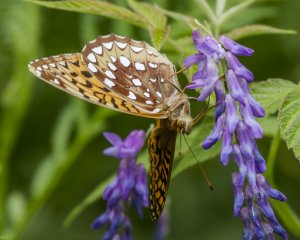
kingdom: Animalia
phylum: Arthropoda
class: Insecta
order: Lepidoptera
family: Nymphalidae
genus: Speyeria
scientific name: Speyeria cybele
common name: Great Spangled Fritillary
